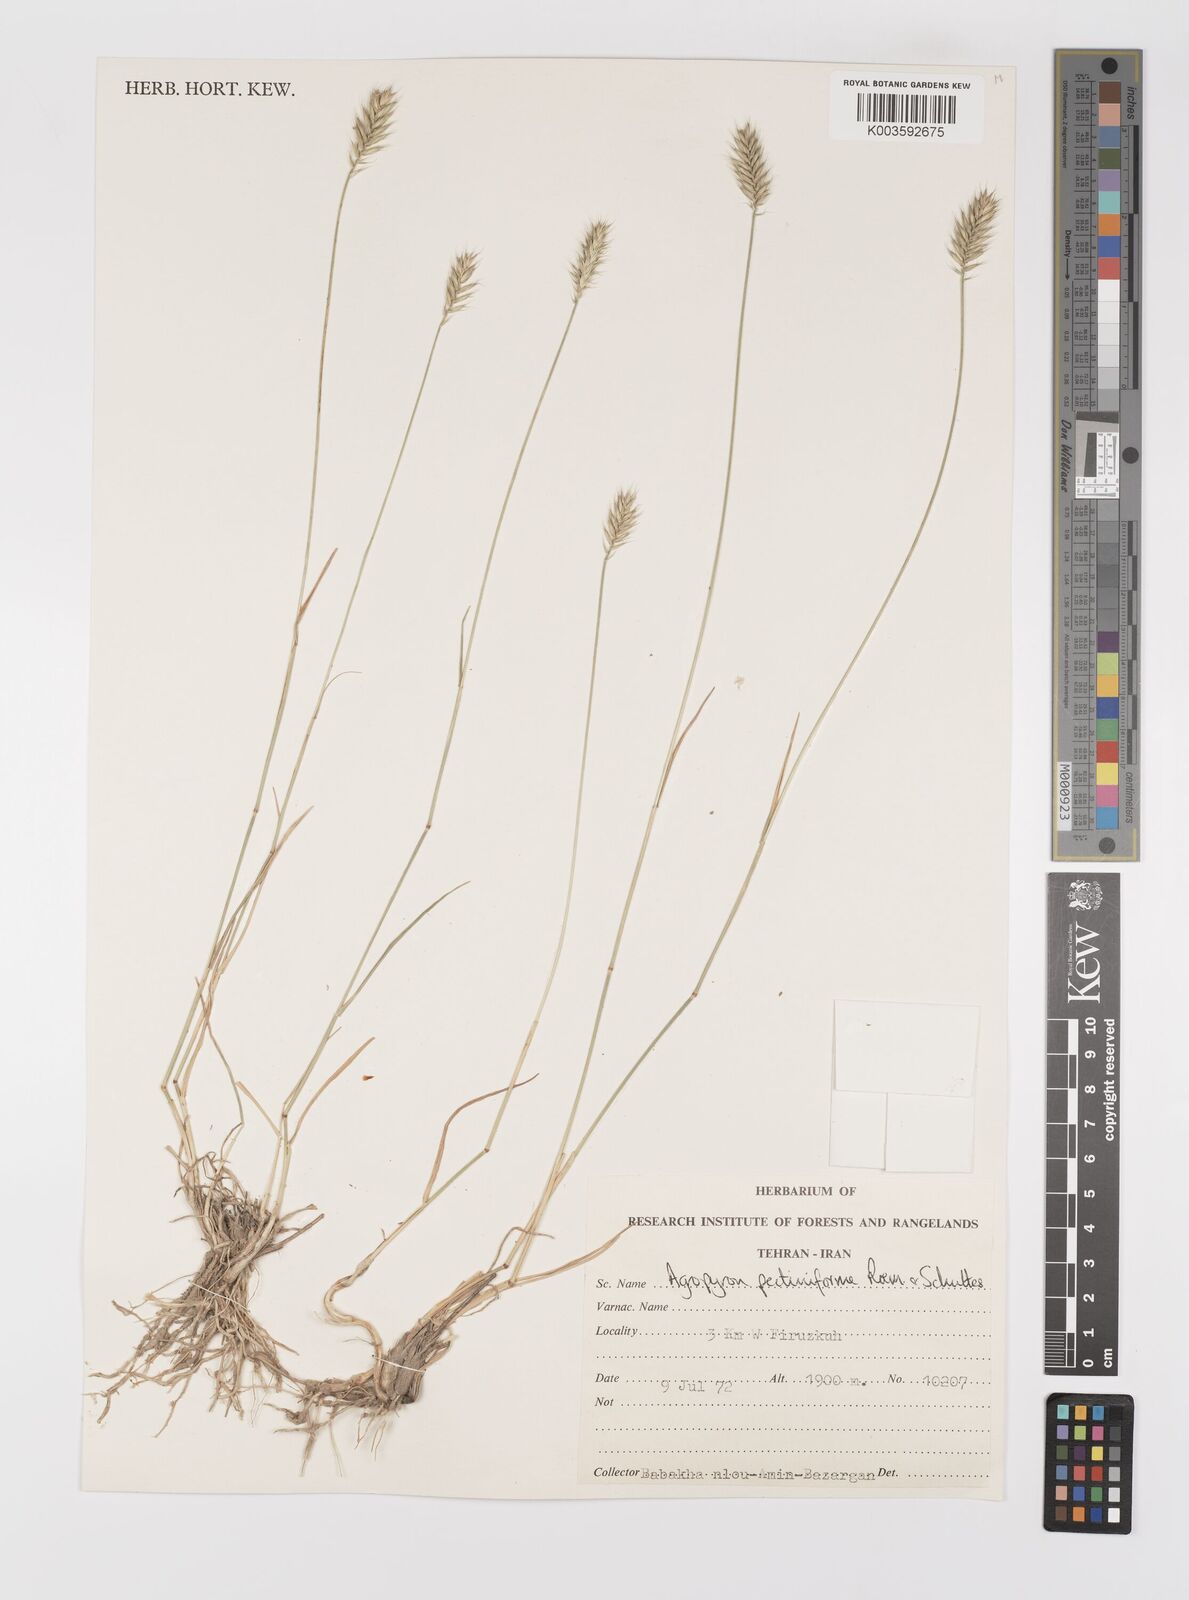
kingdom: Plantae
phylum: Tracheophyta
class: Liliopsida
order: Poales
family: Poaceae
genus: Agropyron
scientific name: Agropyron
